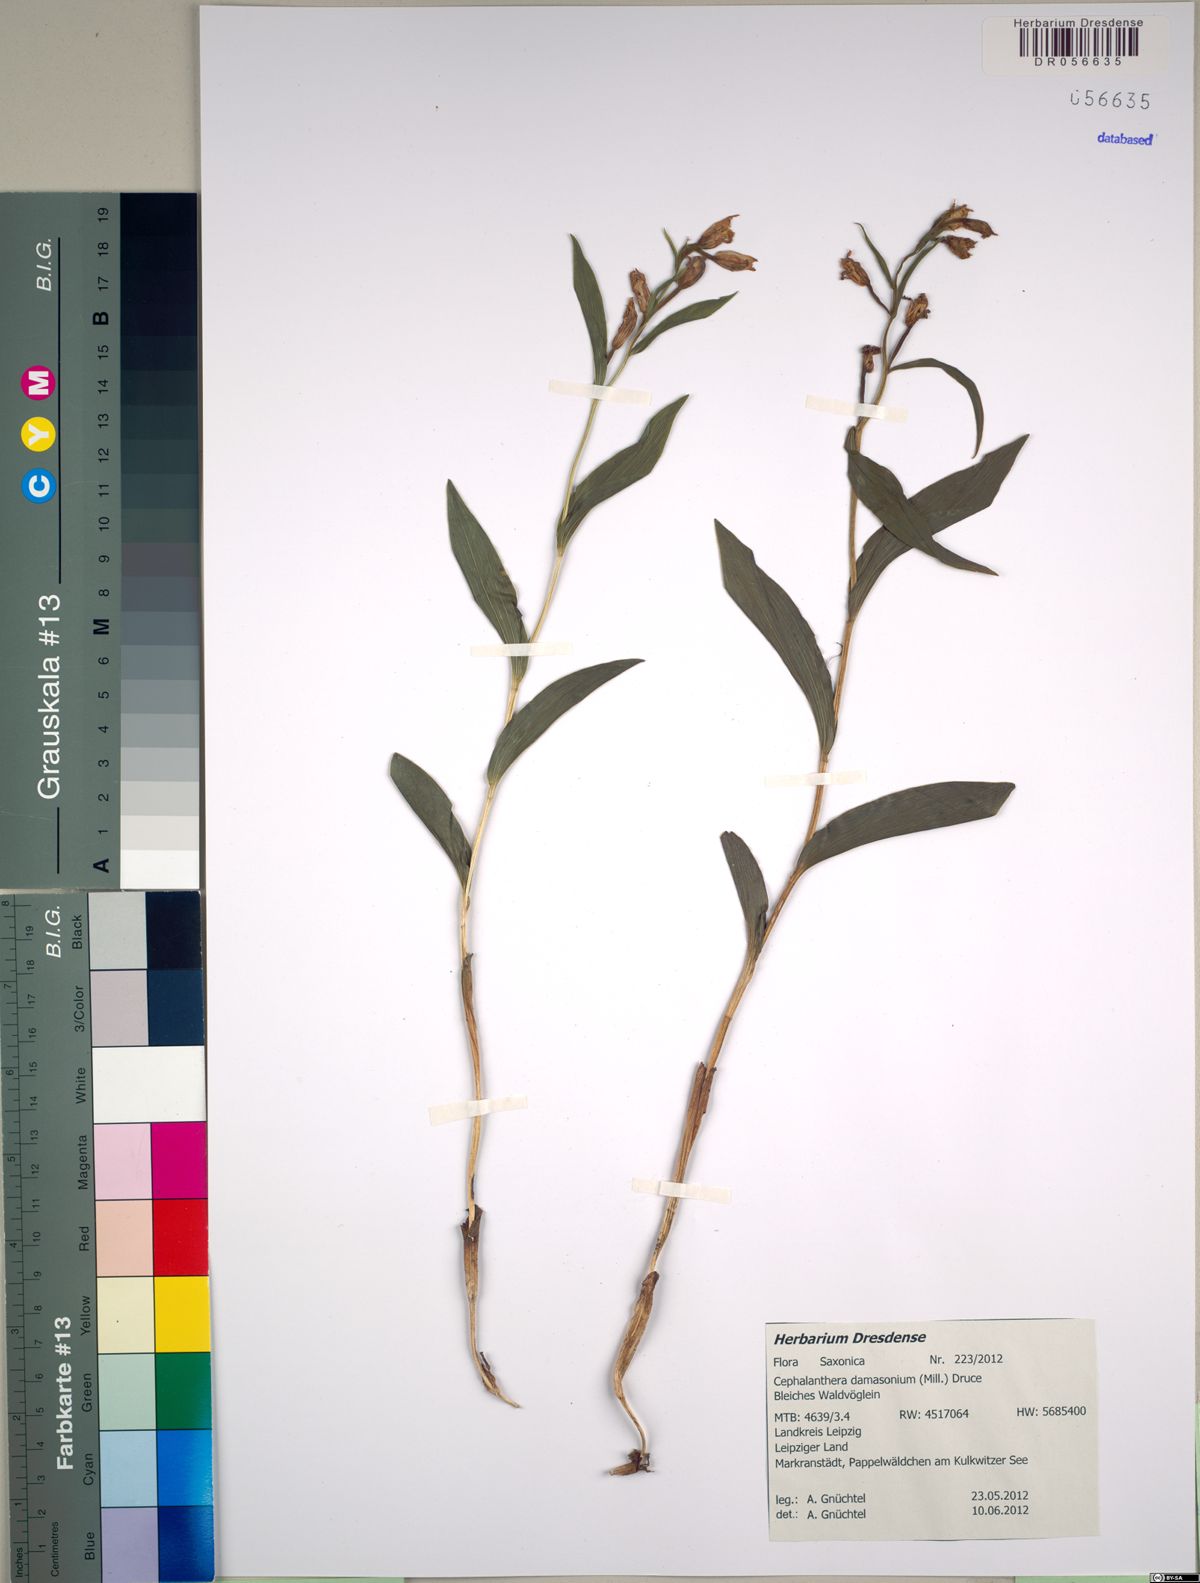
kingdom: Plantae
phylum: Tracheophyta
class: Liliopsida
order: Asparagales
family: Orchidaceae
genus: Cephalanthera
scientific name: Cephalanthera damasonium
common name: White helleborine
